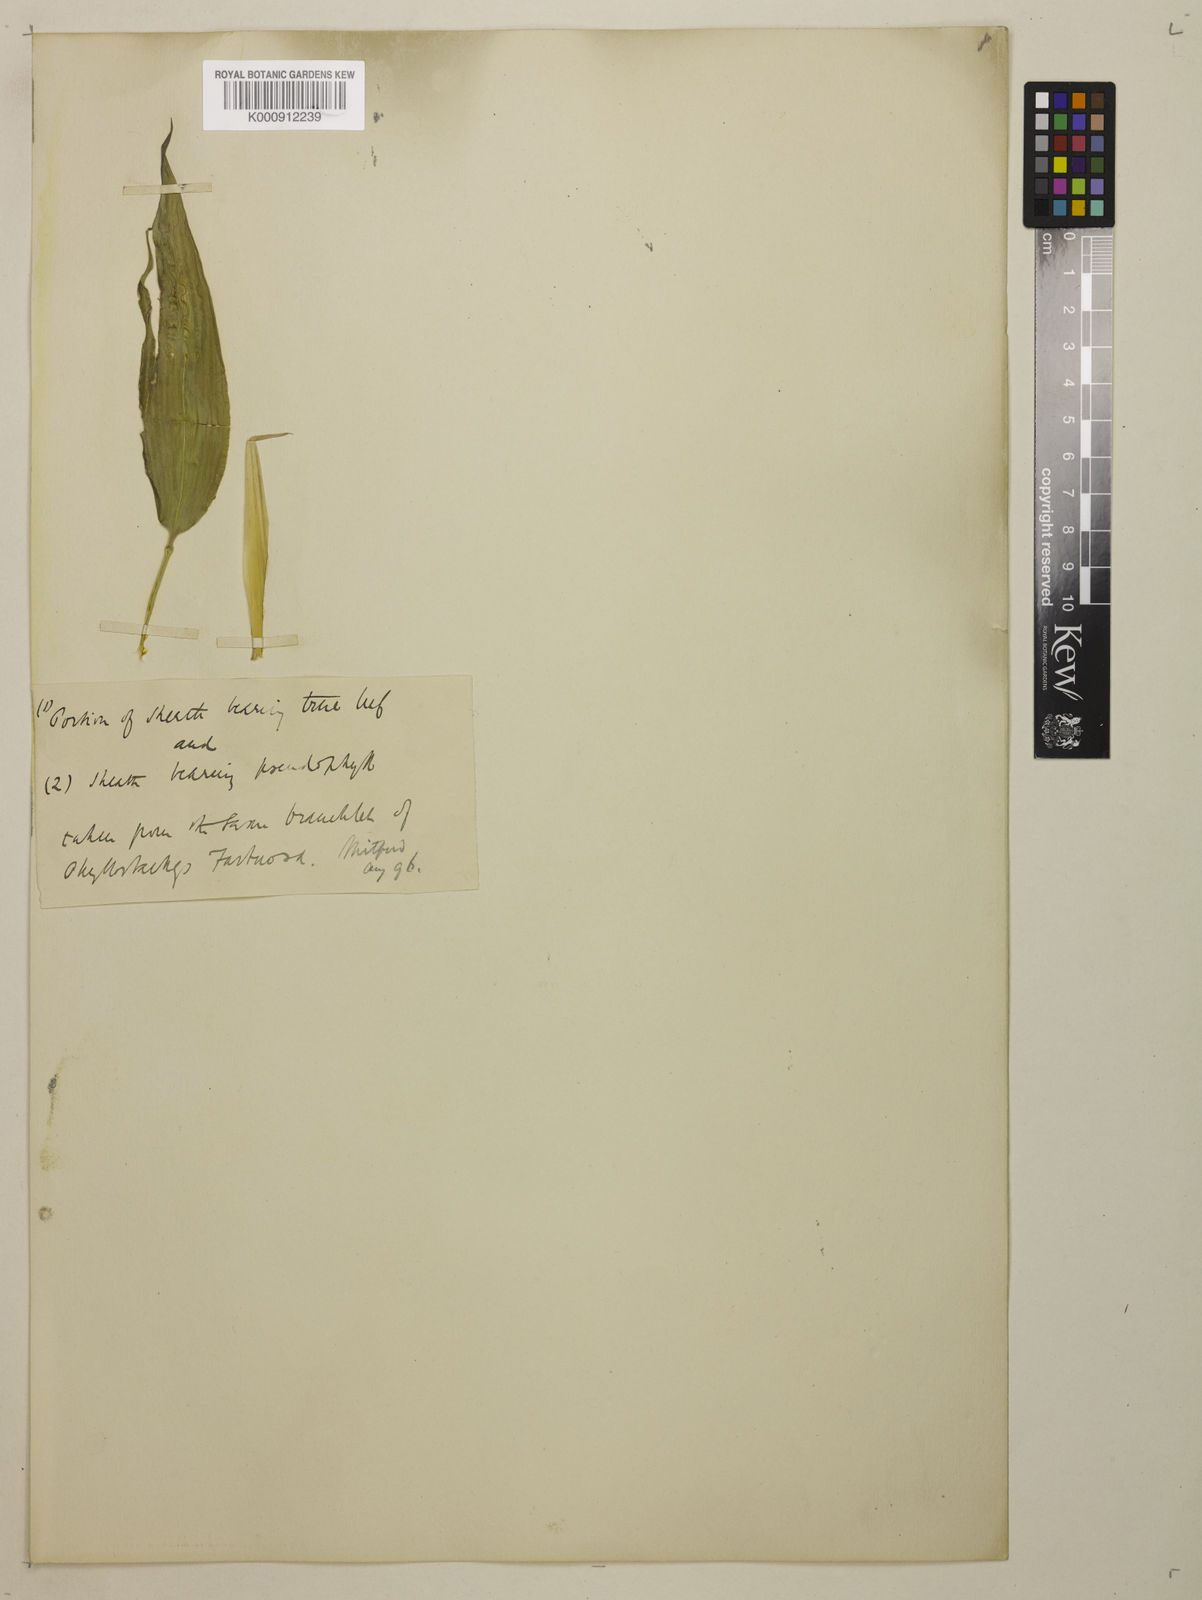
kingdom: Plantae
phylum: Tracheophyta
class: Liliopsida
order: Poales
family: Poaceae
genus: Semiarundinaria
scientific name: Semiarundinaria fastuosa
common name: Narihira bamboo
